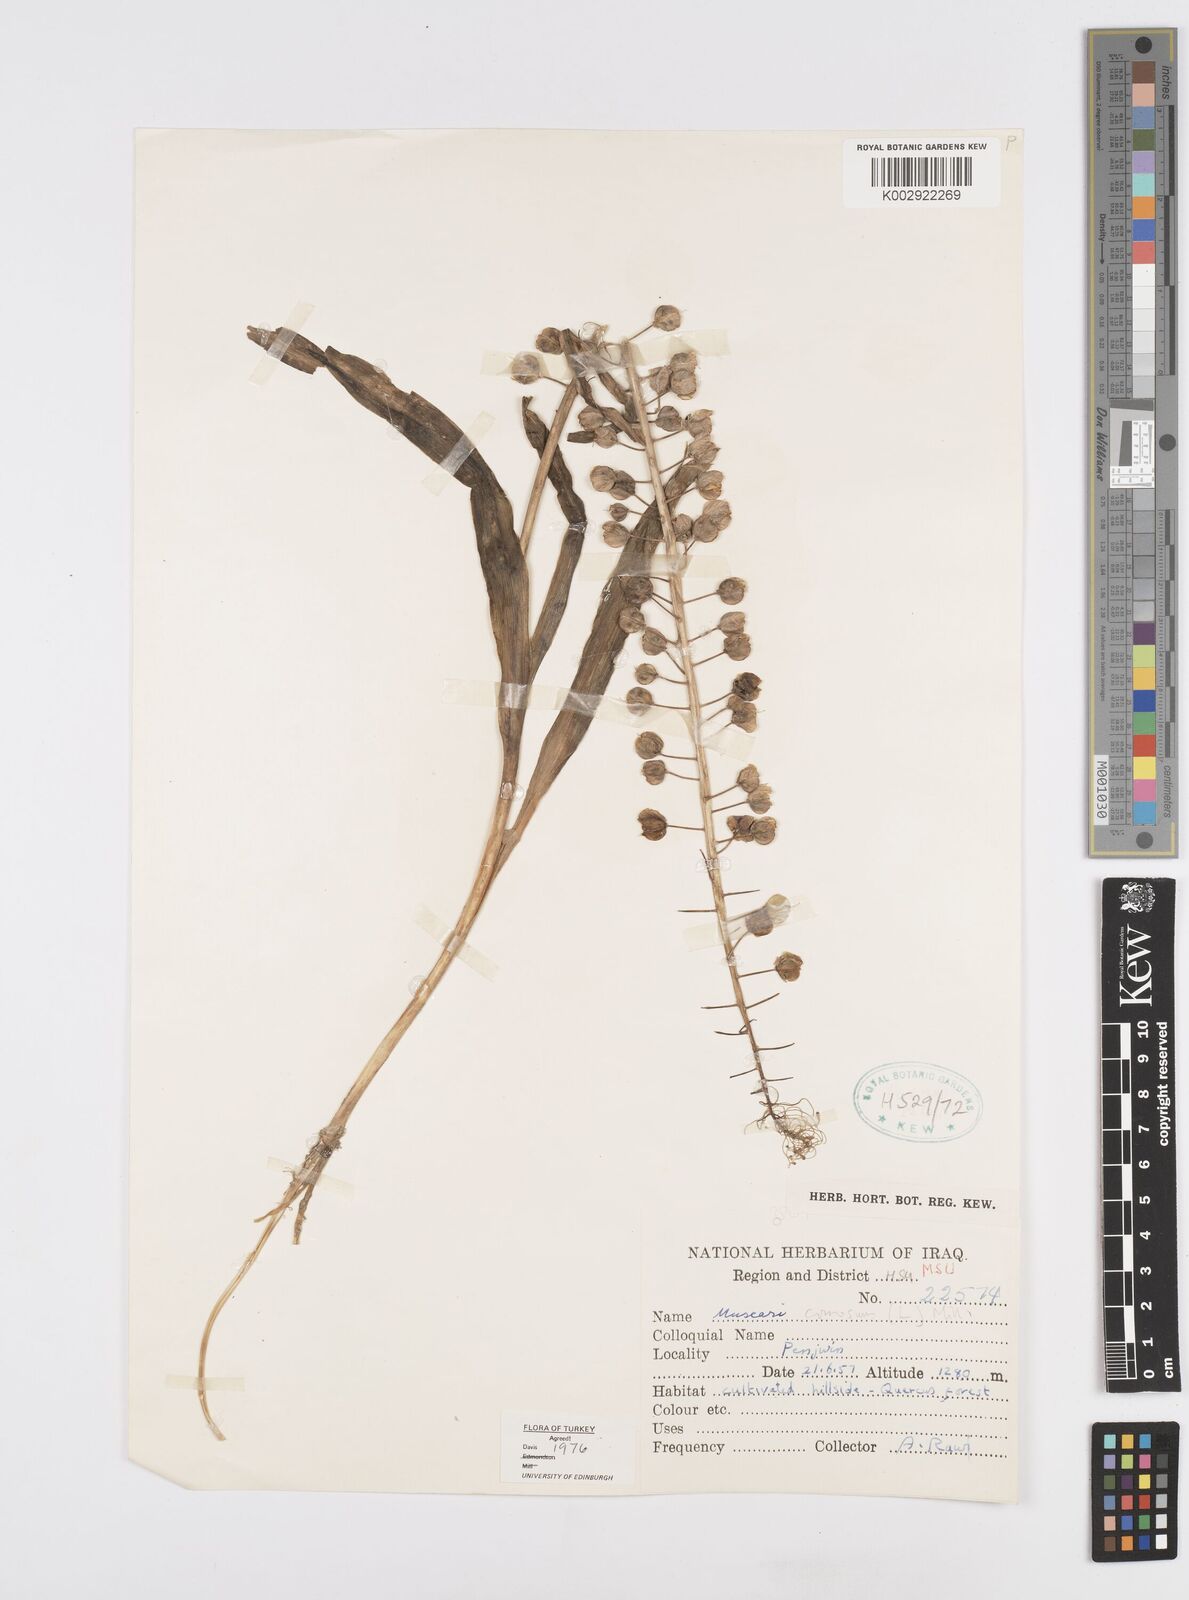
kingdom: Plantae
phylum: Tracheophyta
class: Liliopsida
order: Asparagales
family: Asparagaceae
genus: Muscari
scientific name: Muscari comosum
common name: Tassel hyacinth
